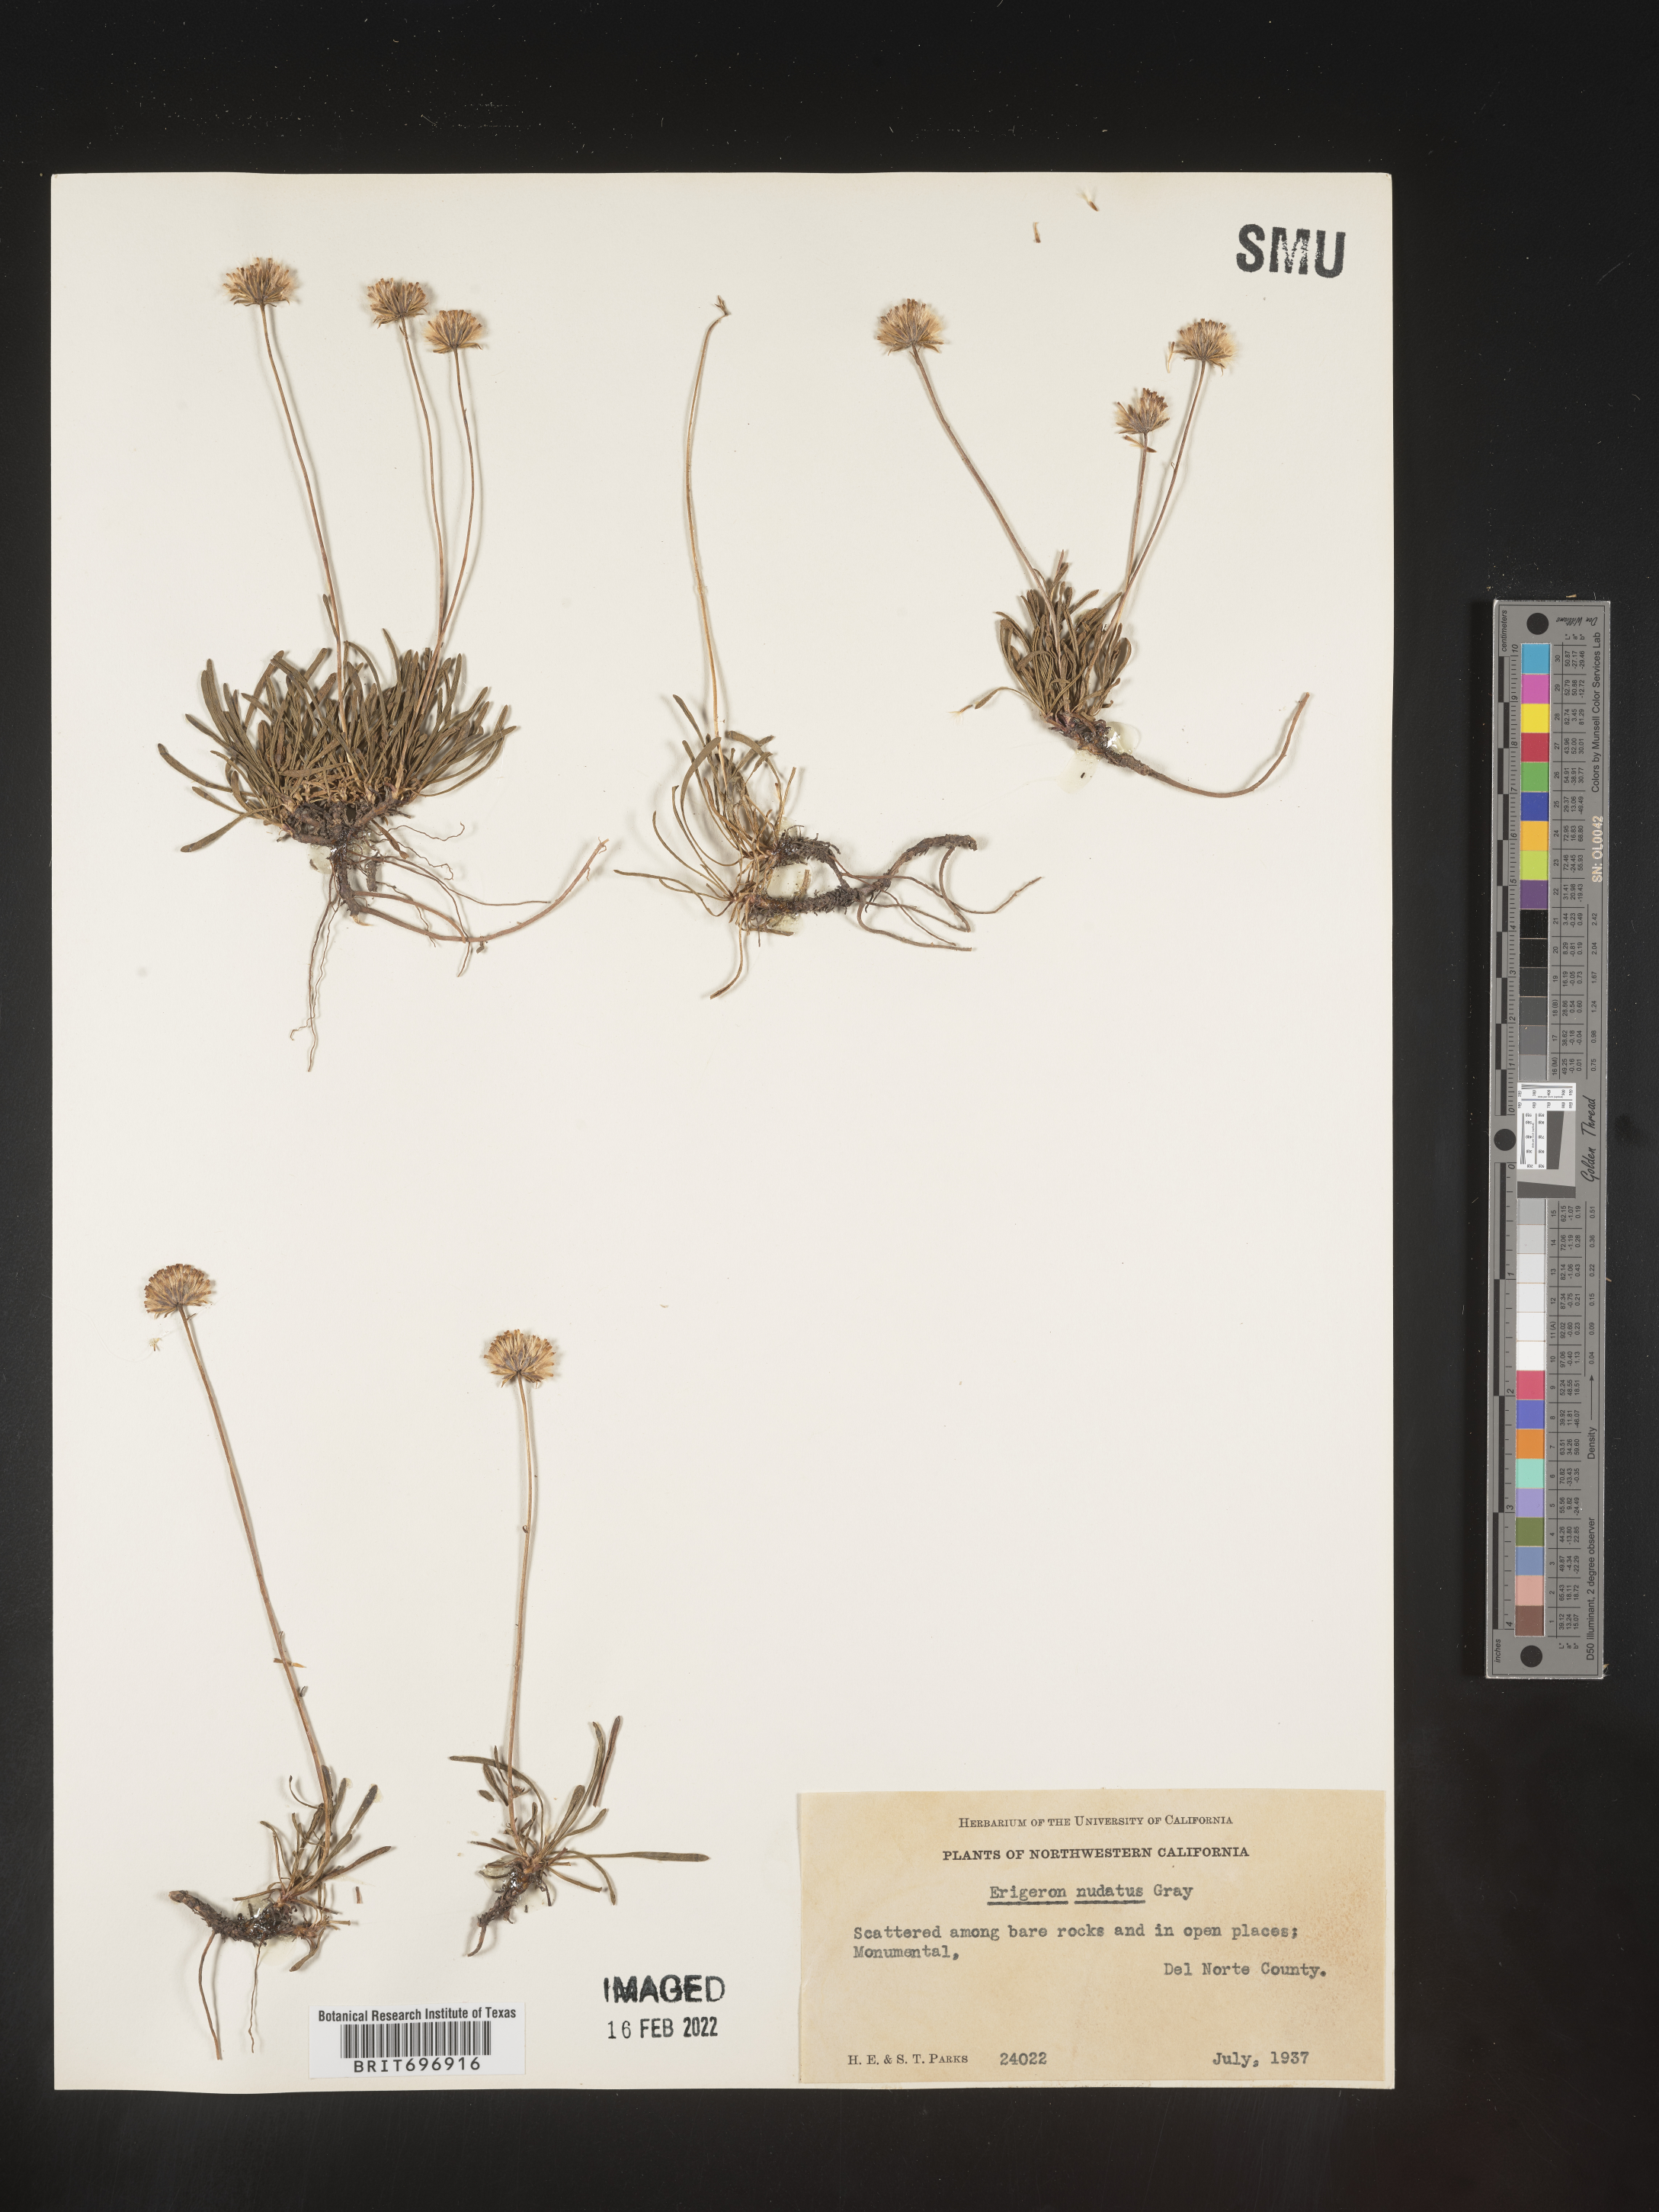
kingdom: Plantae
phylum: Tracheophyta
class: Magnoliopsida
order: Asterales
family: Asteraceae
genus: Erigeron
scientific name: Erigeron bloomeri
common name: Bloomer's fleabane
